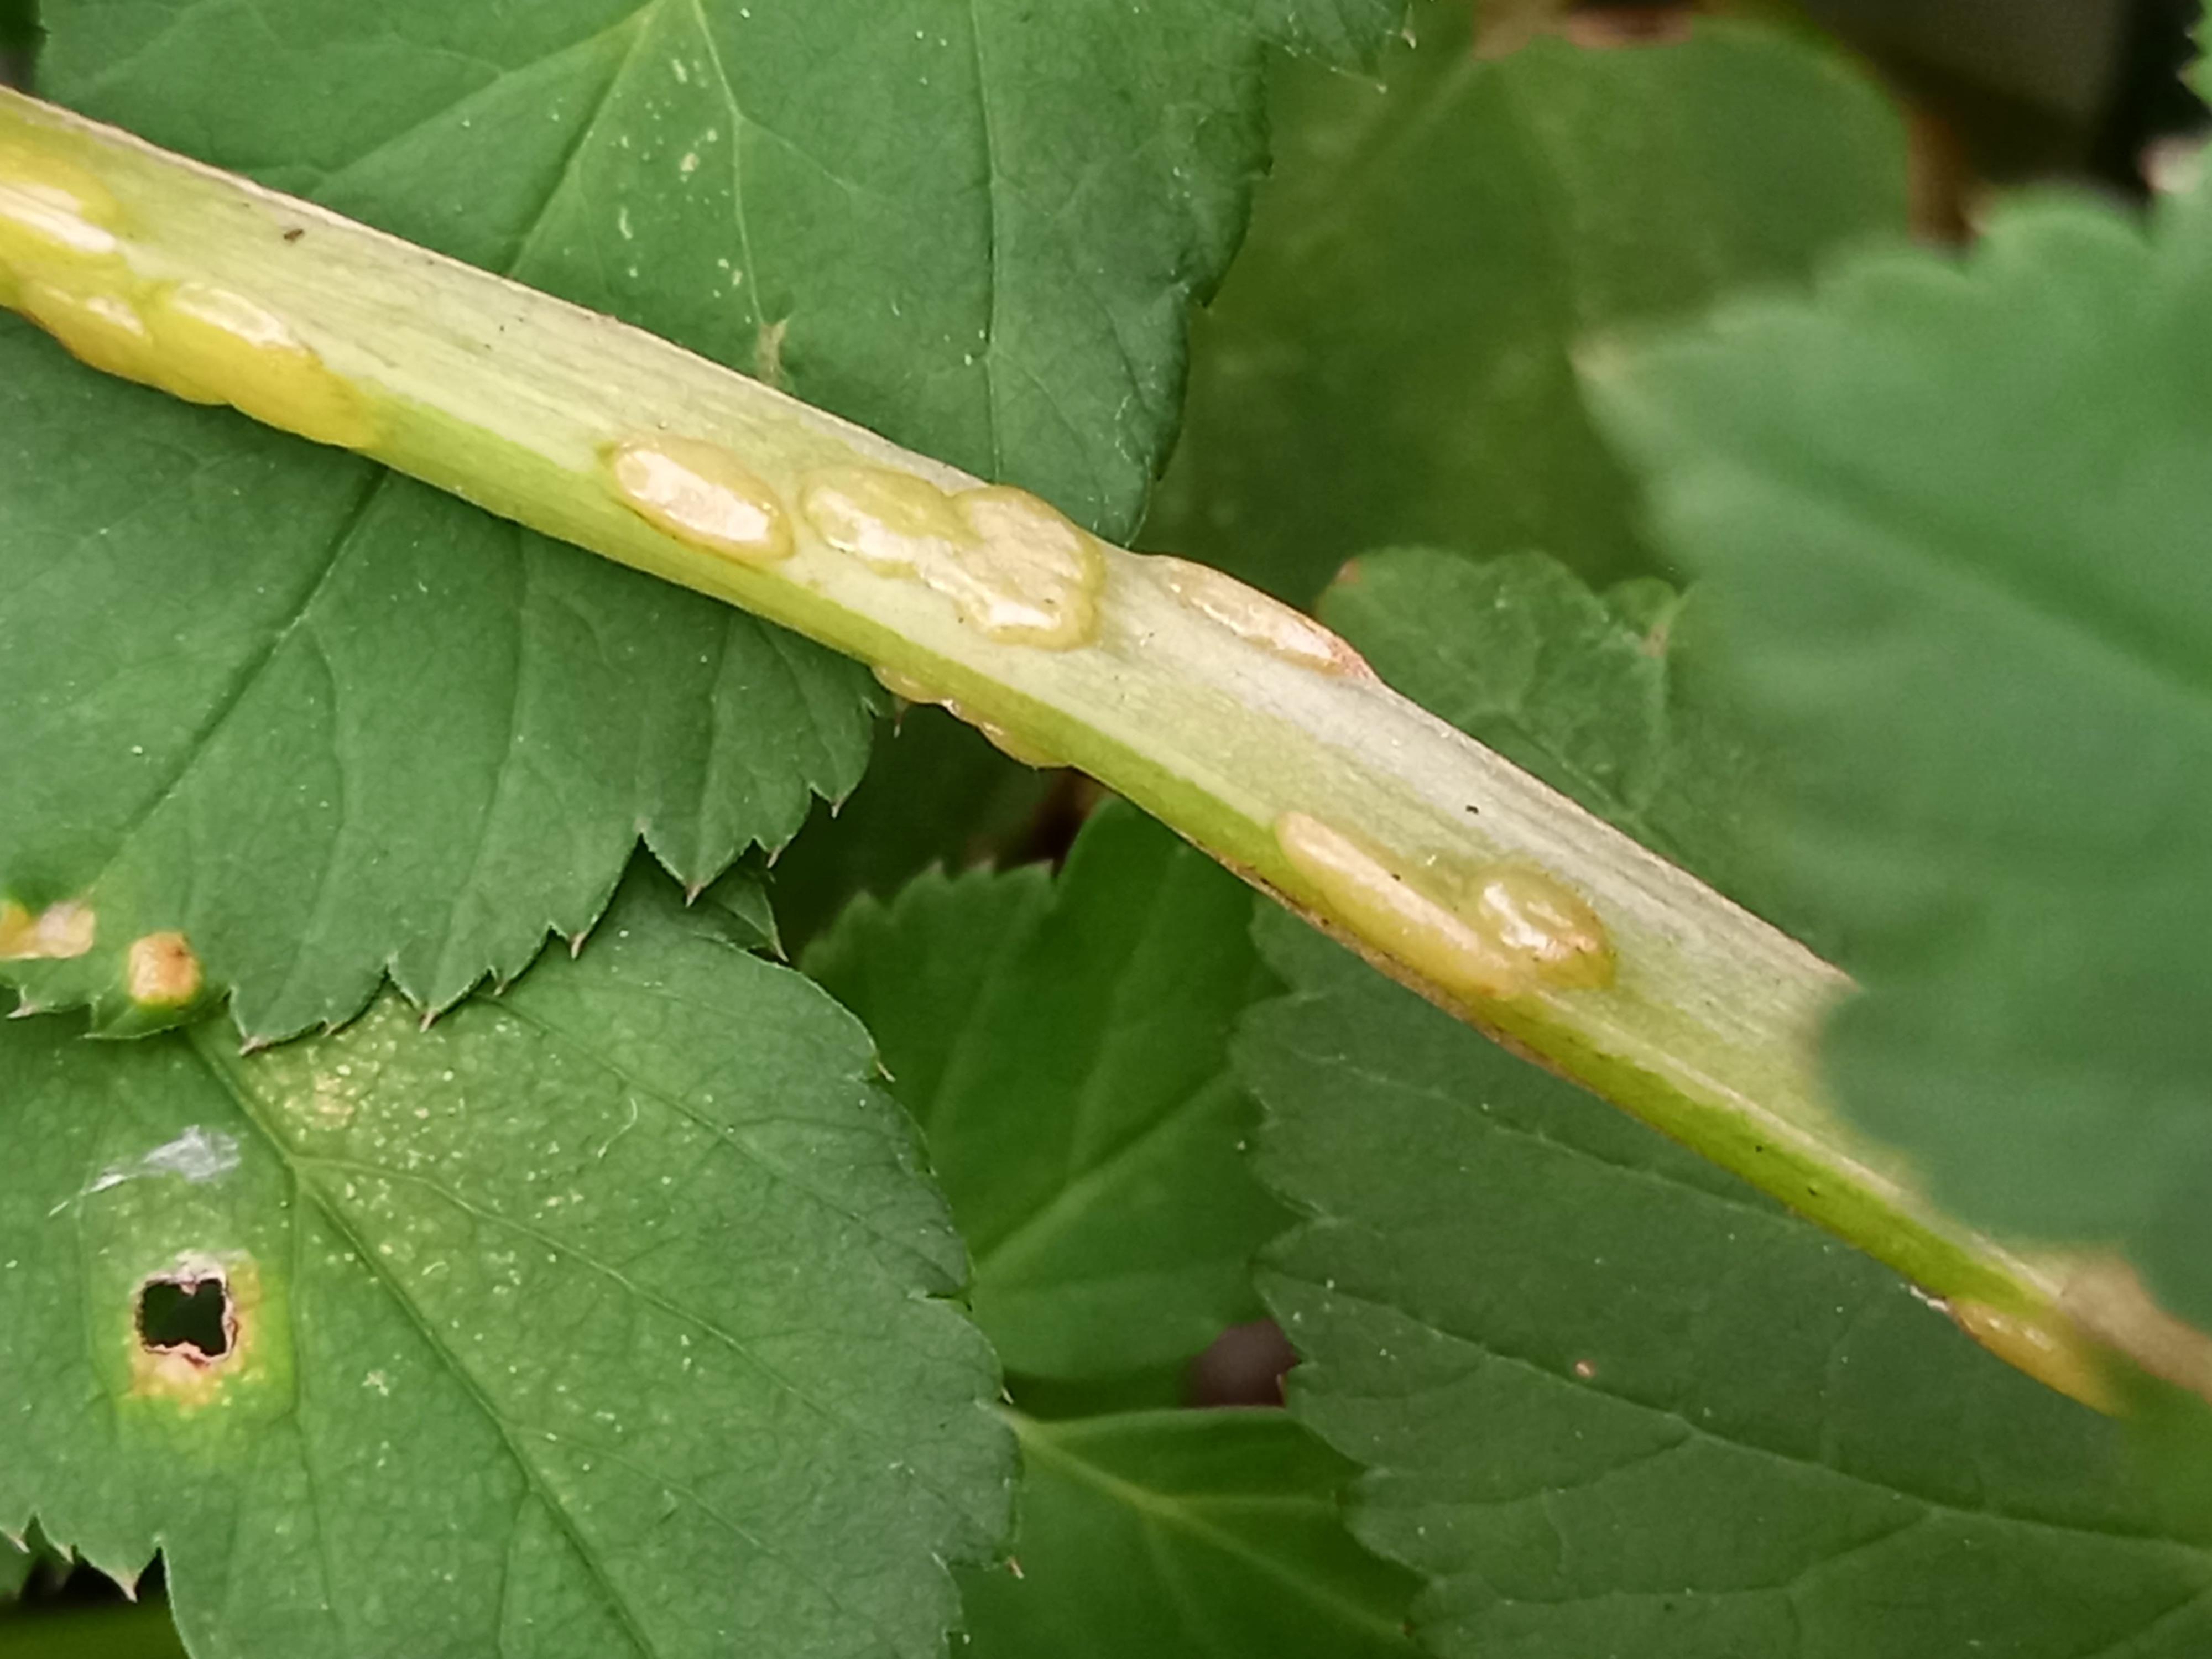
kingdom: Fungi
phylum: Ascomycota
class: Taphrinomycetes
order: Taphrinales
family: Taphrinaceae
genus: Protomyces
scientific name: Protomyces macrosporus
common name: skvalderkål-vablesæk
